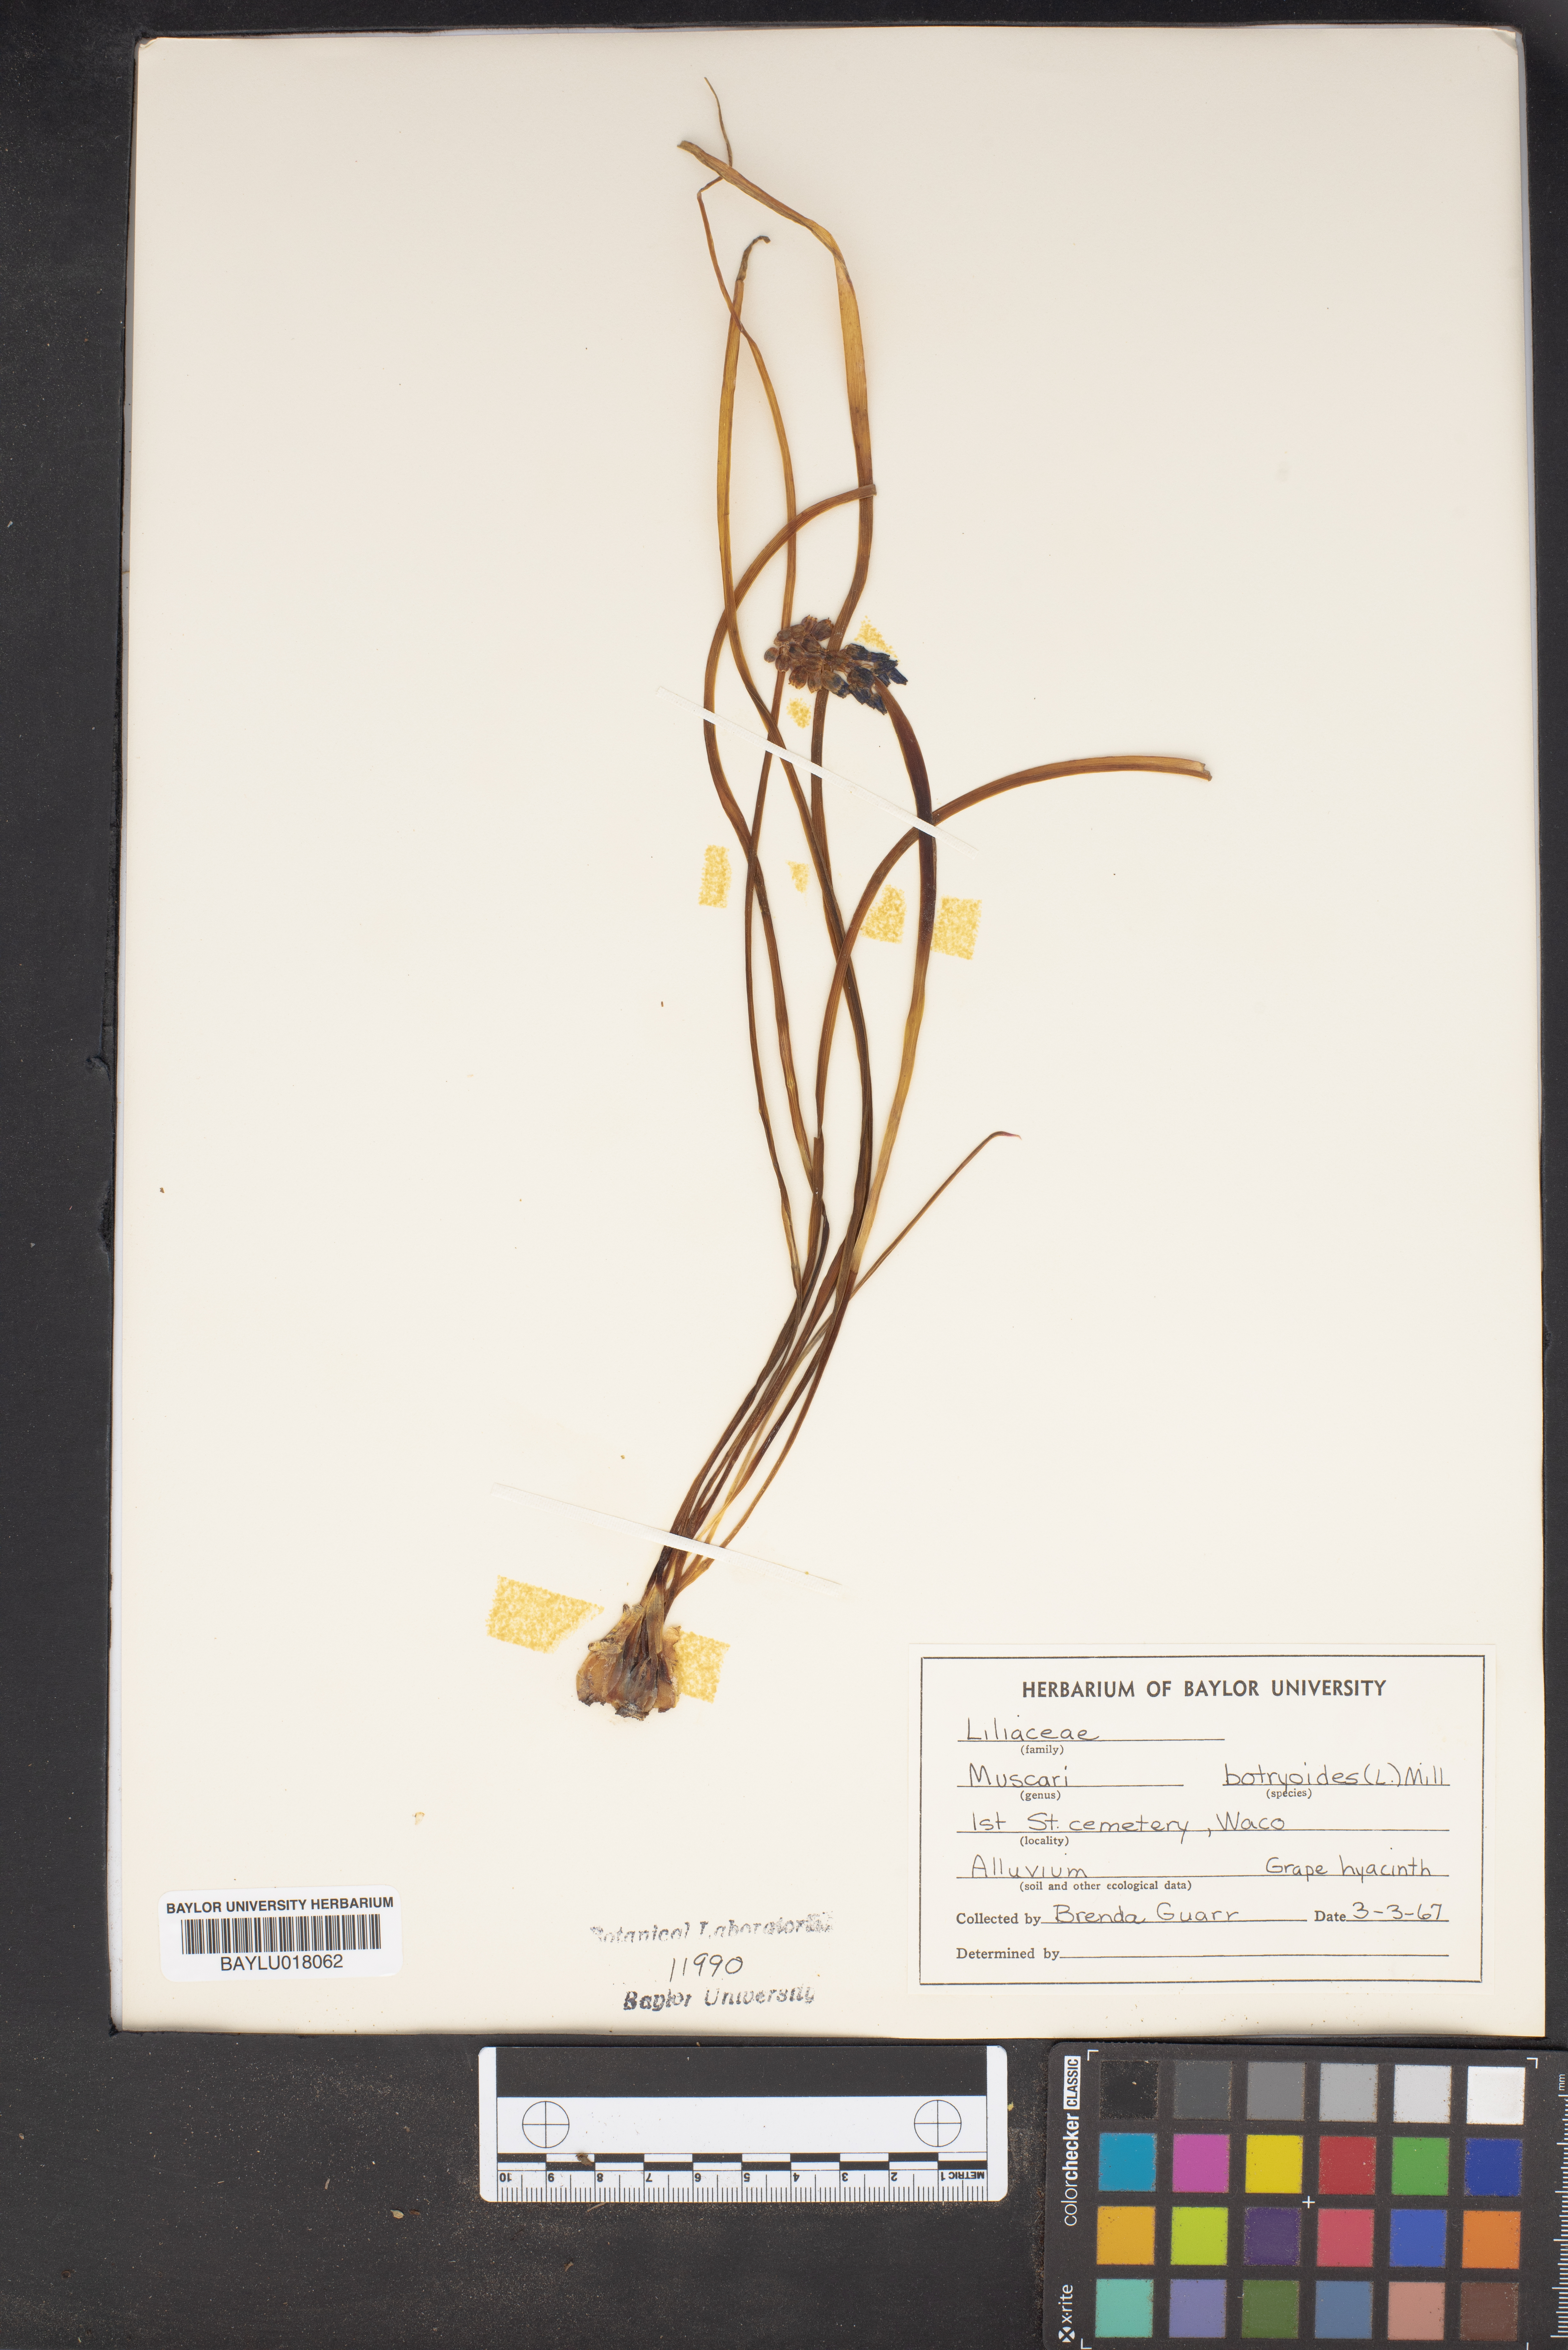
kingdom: Plantae
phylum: Tracheophyta
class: Liliopsida
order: Asparagales
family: Asparagaceae
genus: Muscari
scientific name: Muscari botryoides
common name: Compact grape-hyacinth
